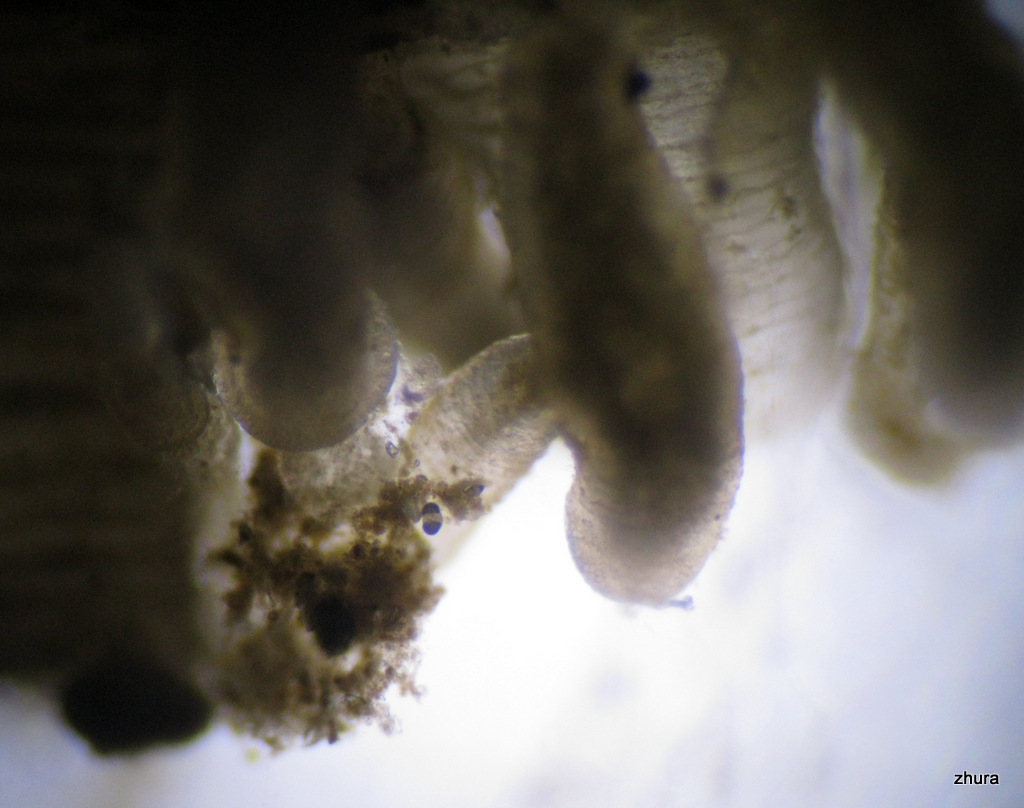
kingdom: Animalia
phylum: Cnidaria
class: Hydrozoa
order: Limnomedusae
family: Monobrachiidae
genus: Monobrachium
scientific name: Monobrachium parasitum
